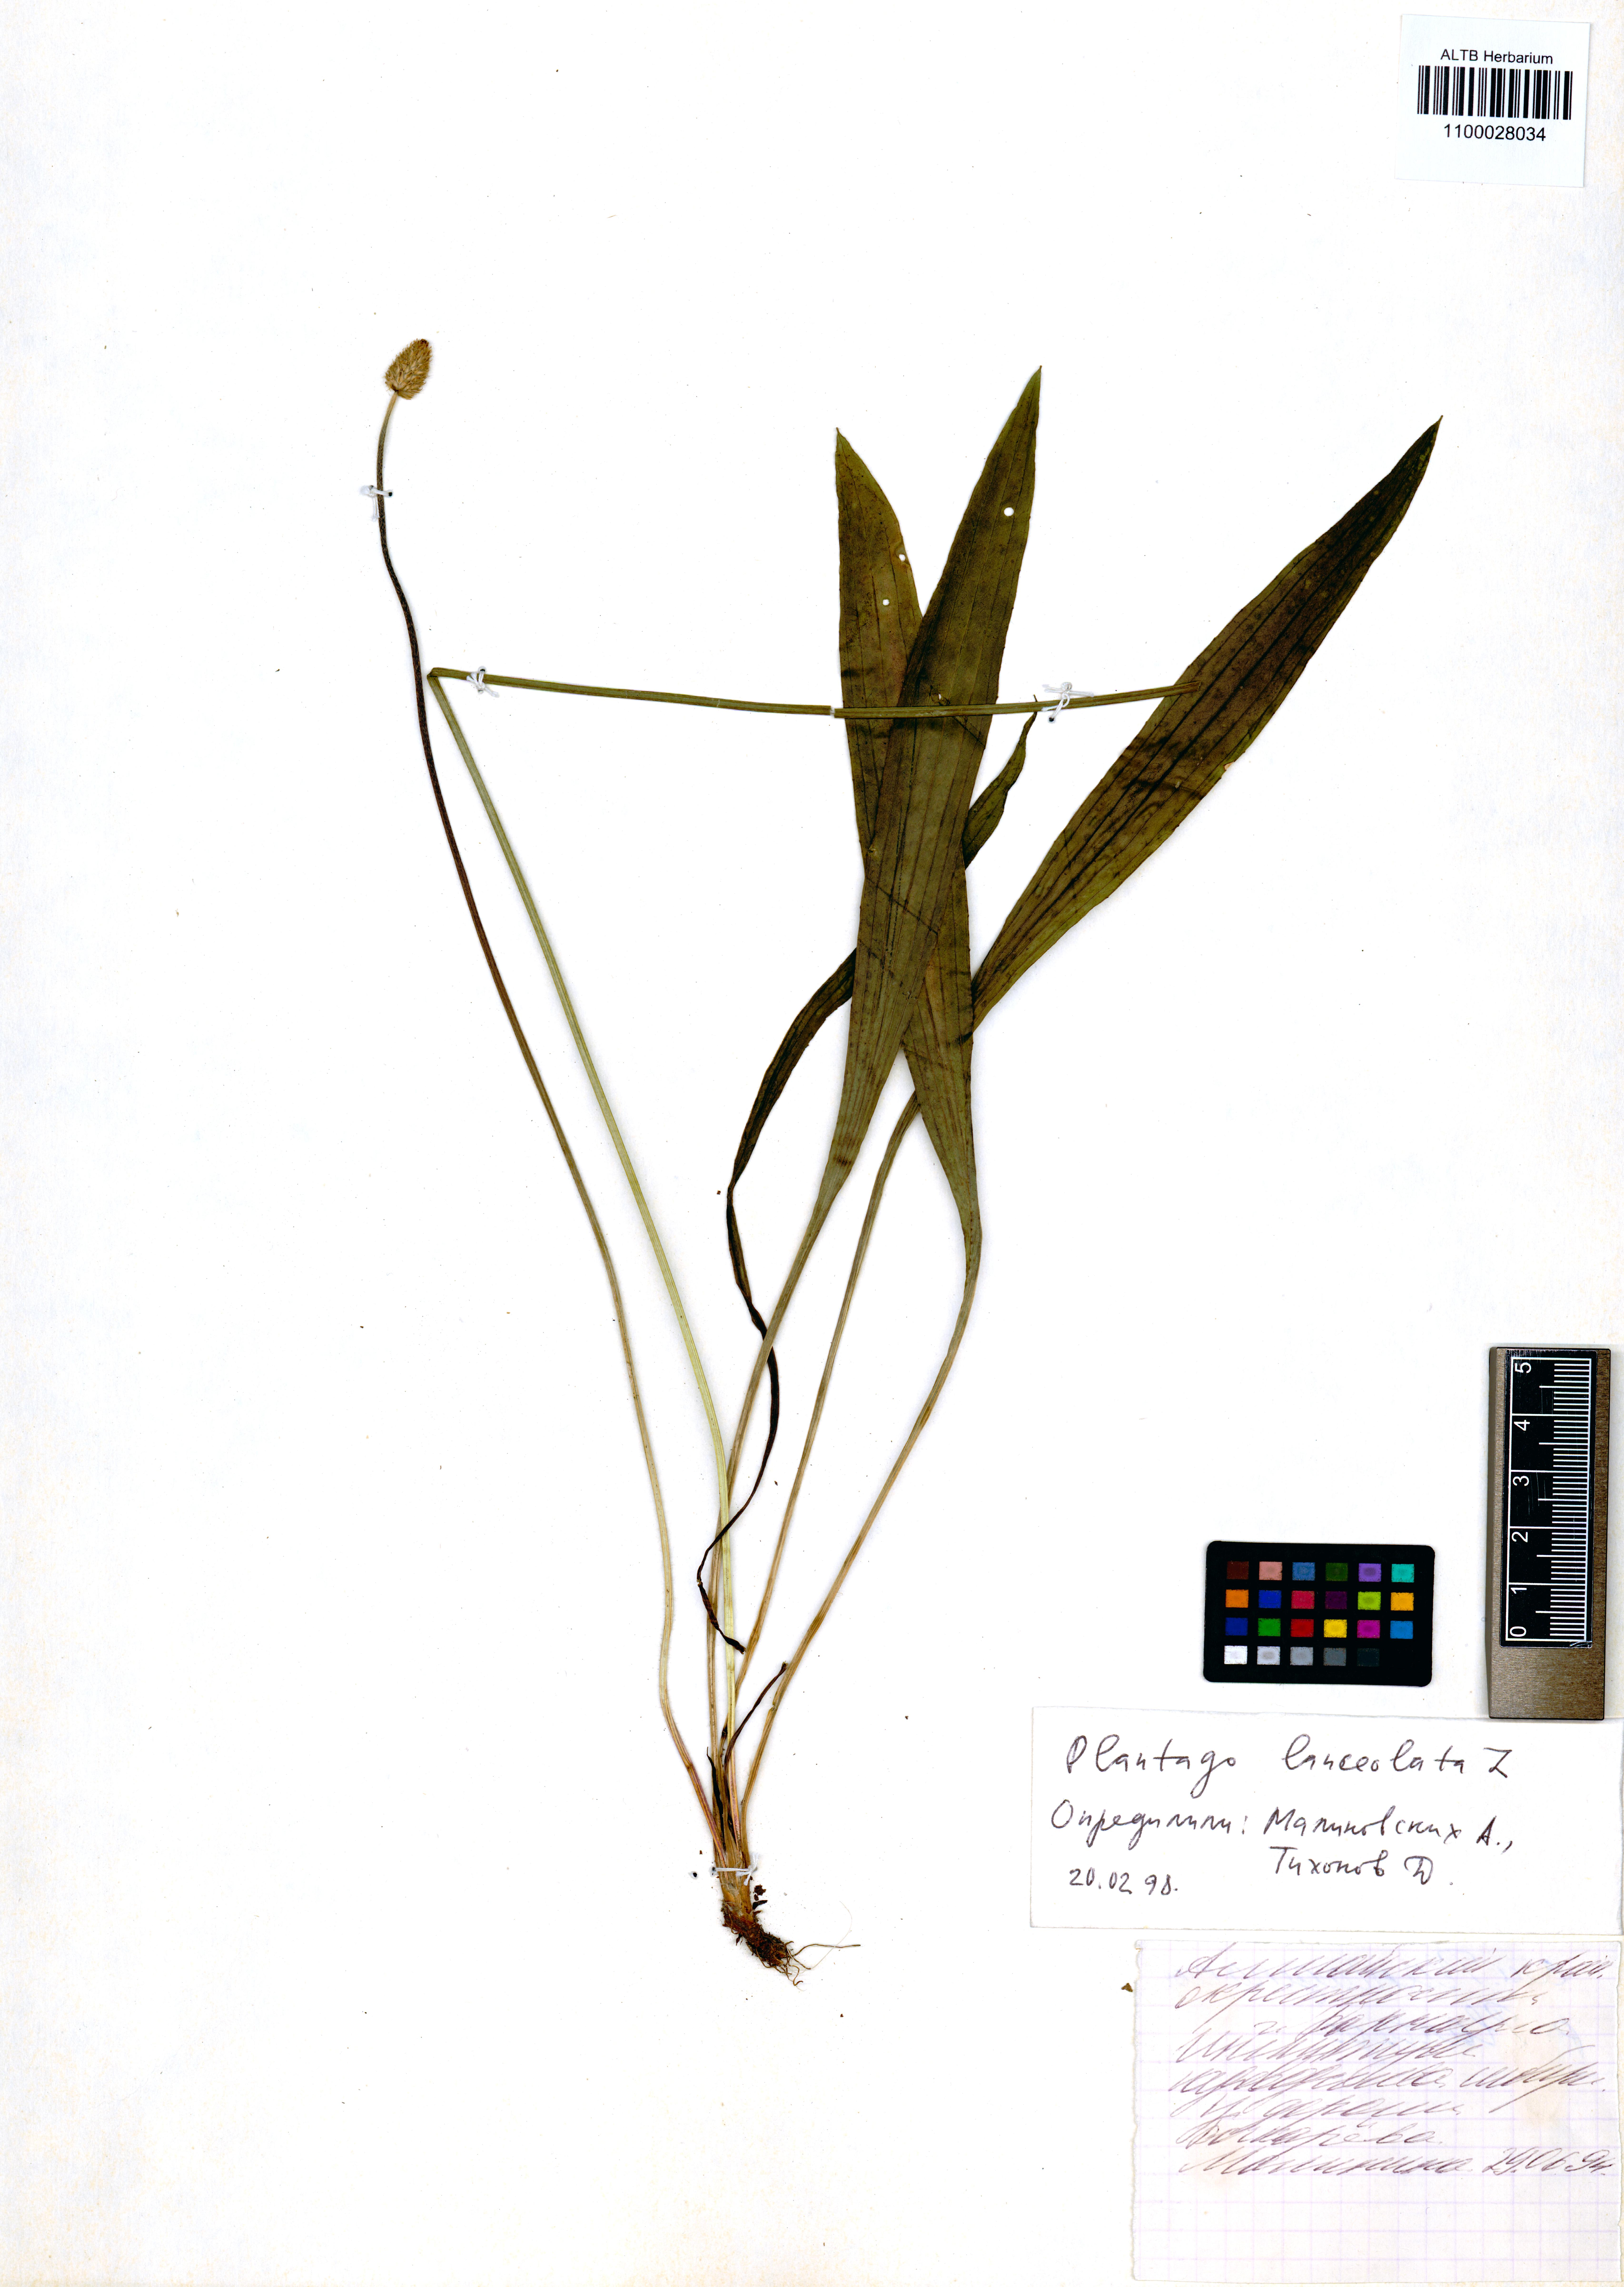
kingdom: Plantae
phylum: Tracheophyta
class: Magnoliopsida
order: Lamiales
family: Plantaginaceae
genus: Plantago
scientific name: Plantago lanceolata
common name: Ribwort plantain
